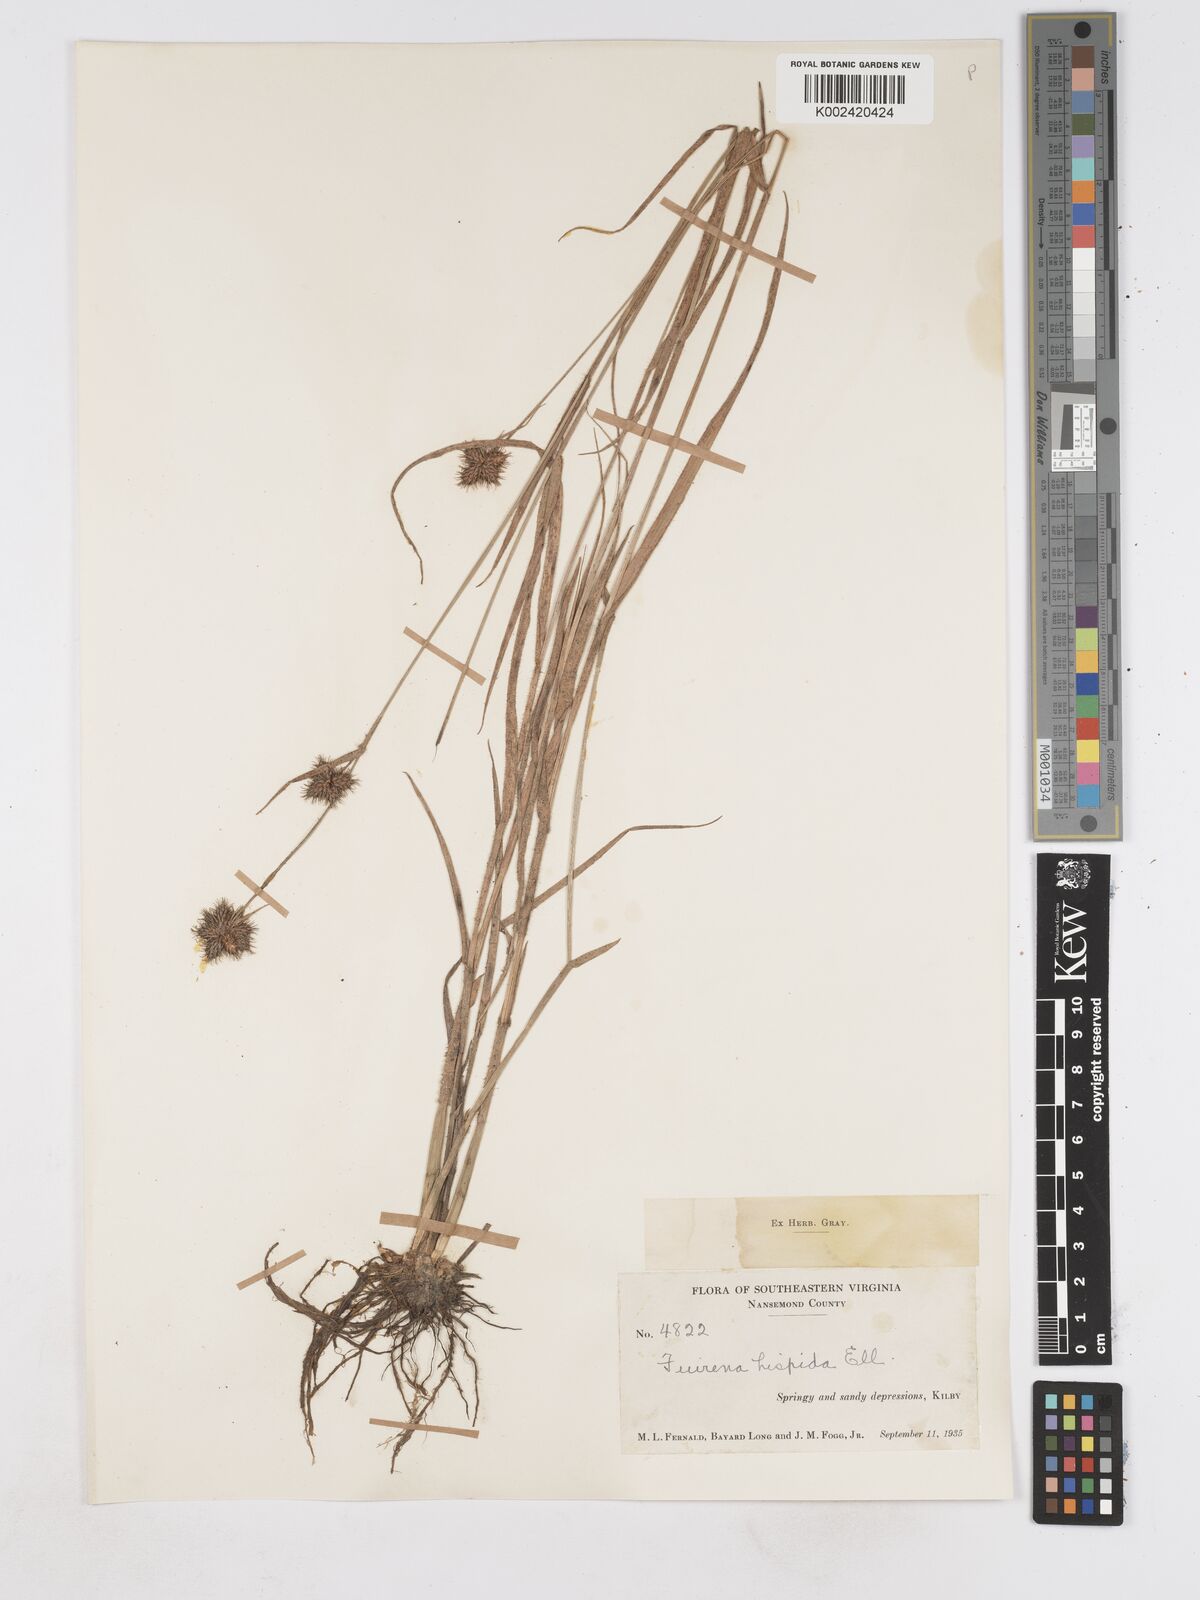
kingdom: Plantae
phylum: Tracheophyta
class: Liliopsida
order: Poales
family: Cyperaceae
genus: Fuirena
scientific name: Fuirena squarrosa
